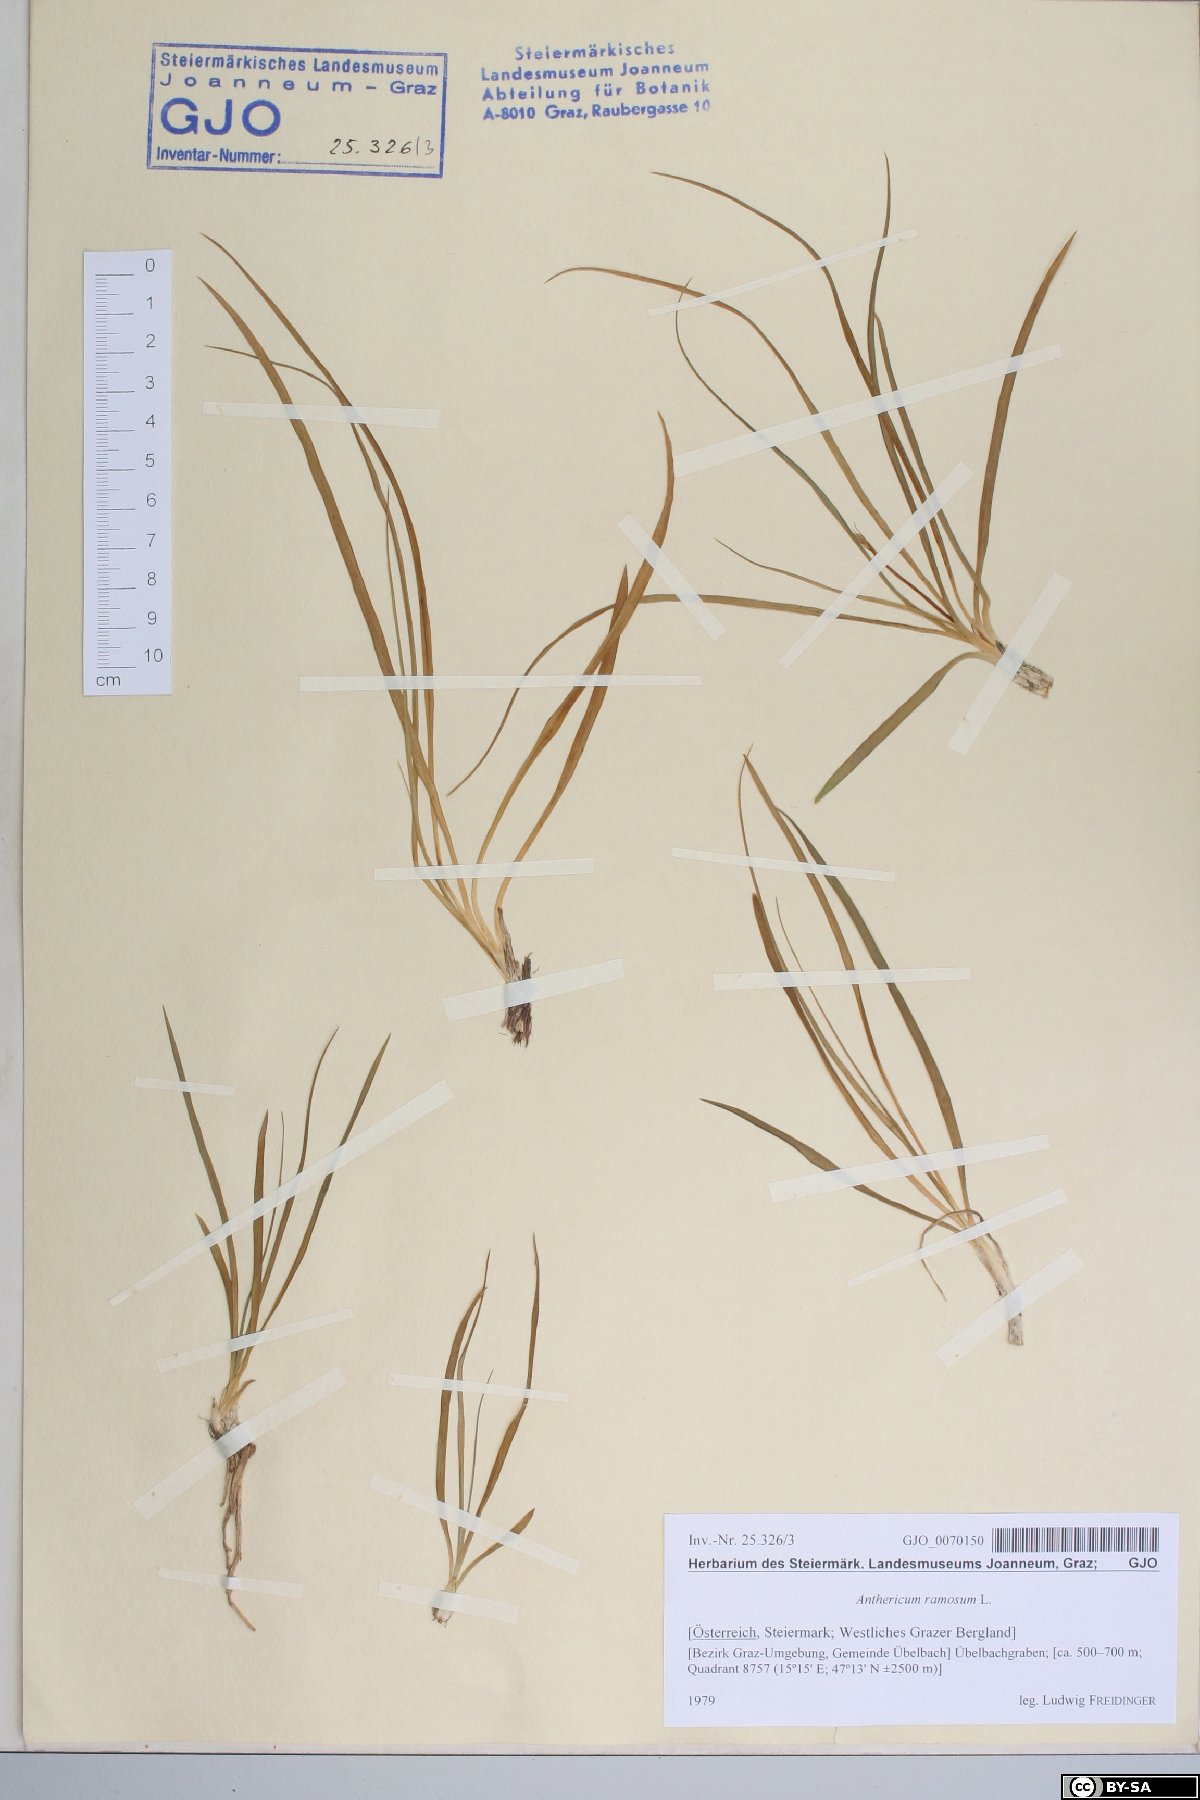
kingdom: Plantae
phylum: Tracheophyta
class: Liliopsida
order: Asparagales
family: Asparagaceae
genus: Anthericum
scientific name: Anthericum ramosum
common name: Branched st. bernard's-lily
